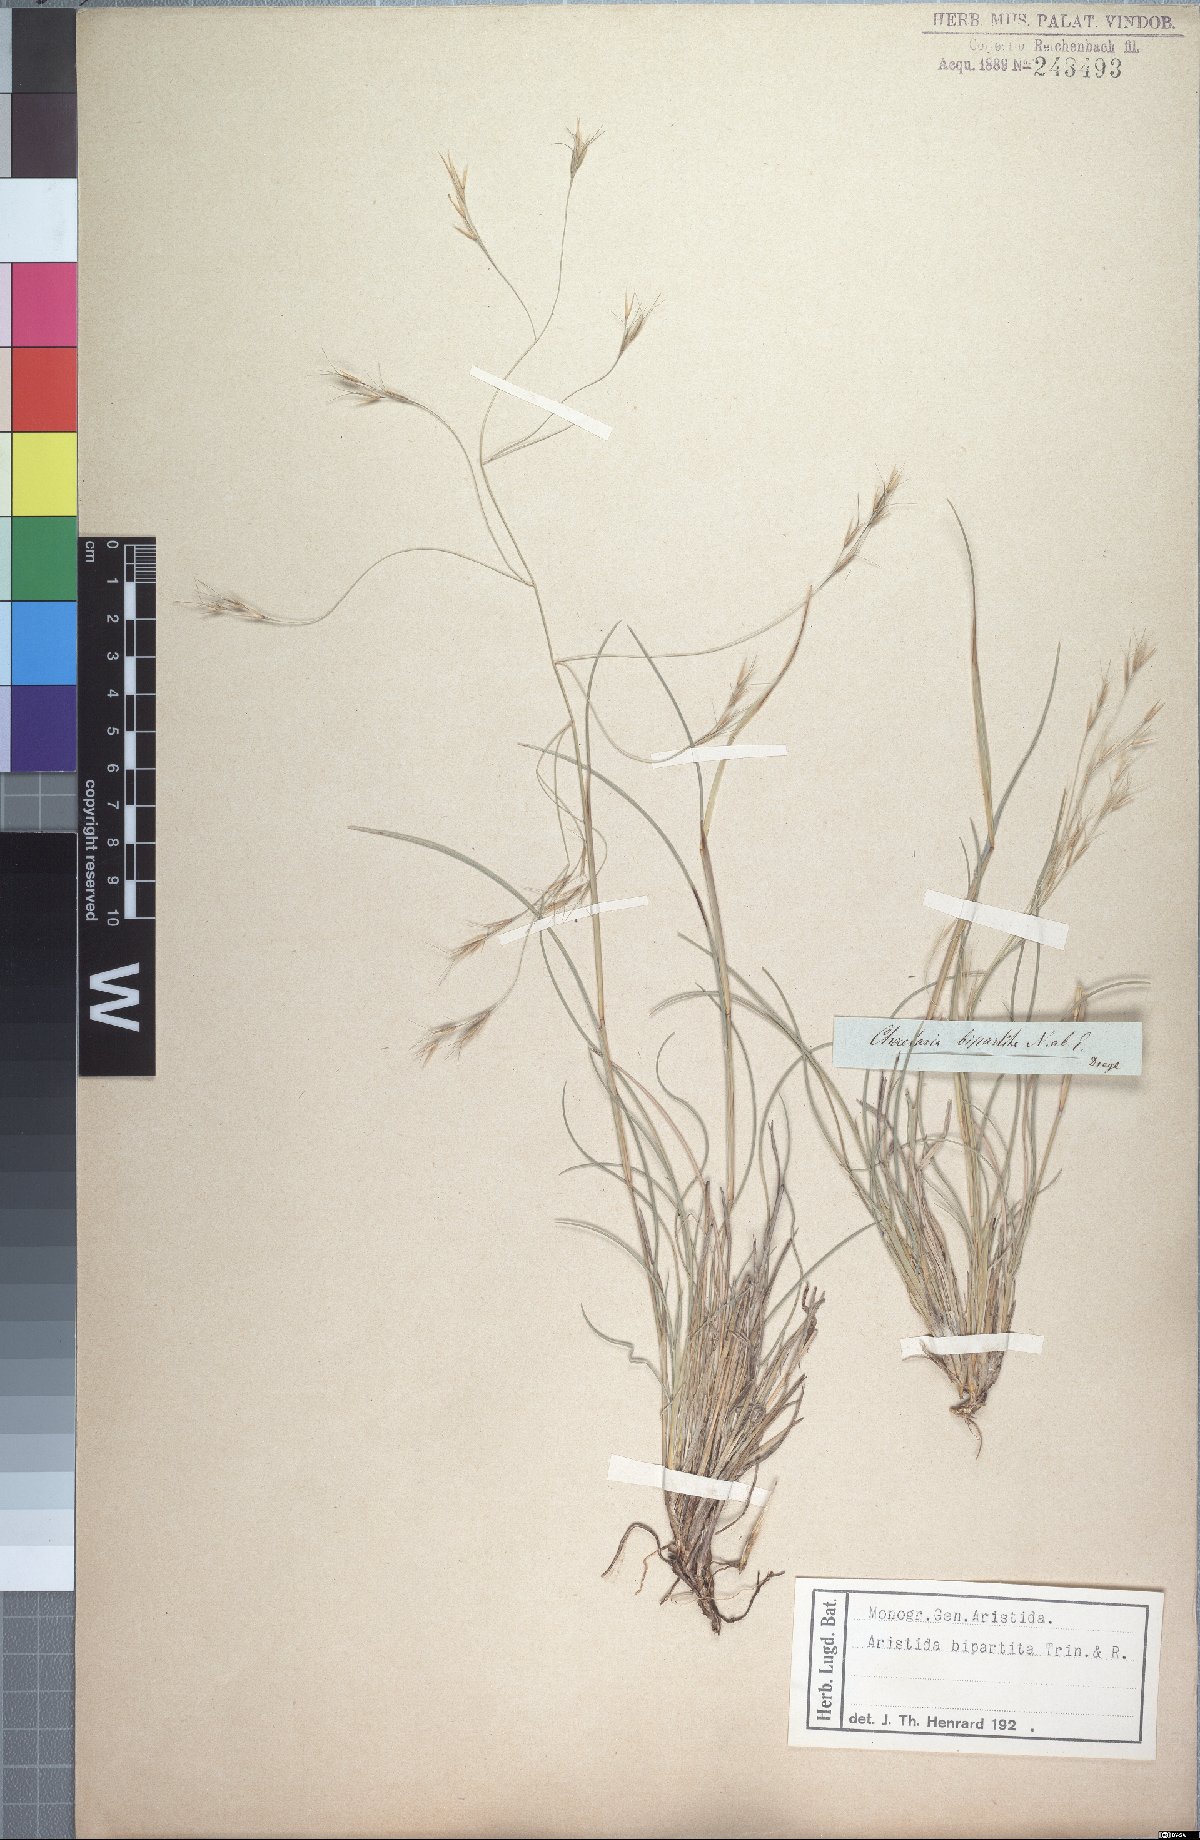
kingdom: Plantae
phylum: Tracheophyta
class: Liliopsida
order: Poales
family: Poaceae
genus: Aristida
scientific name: Aristida bipartita
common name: Three-awn rolling grass
